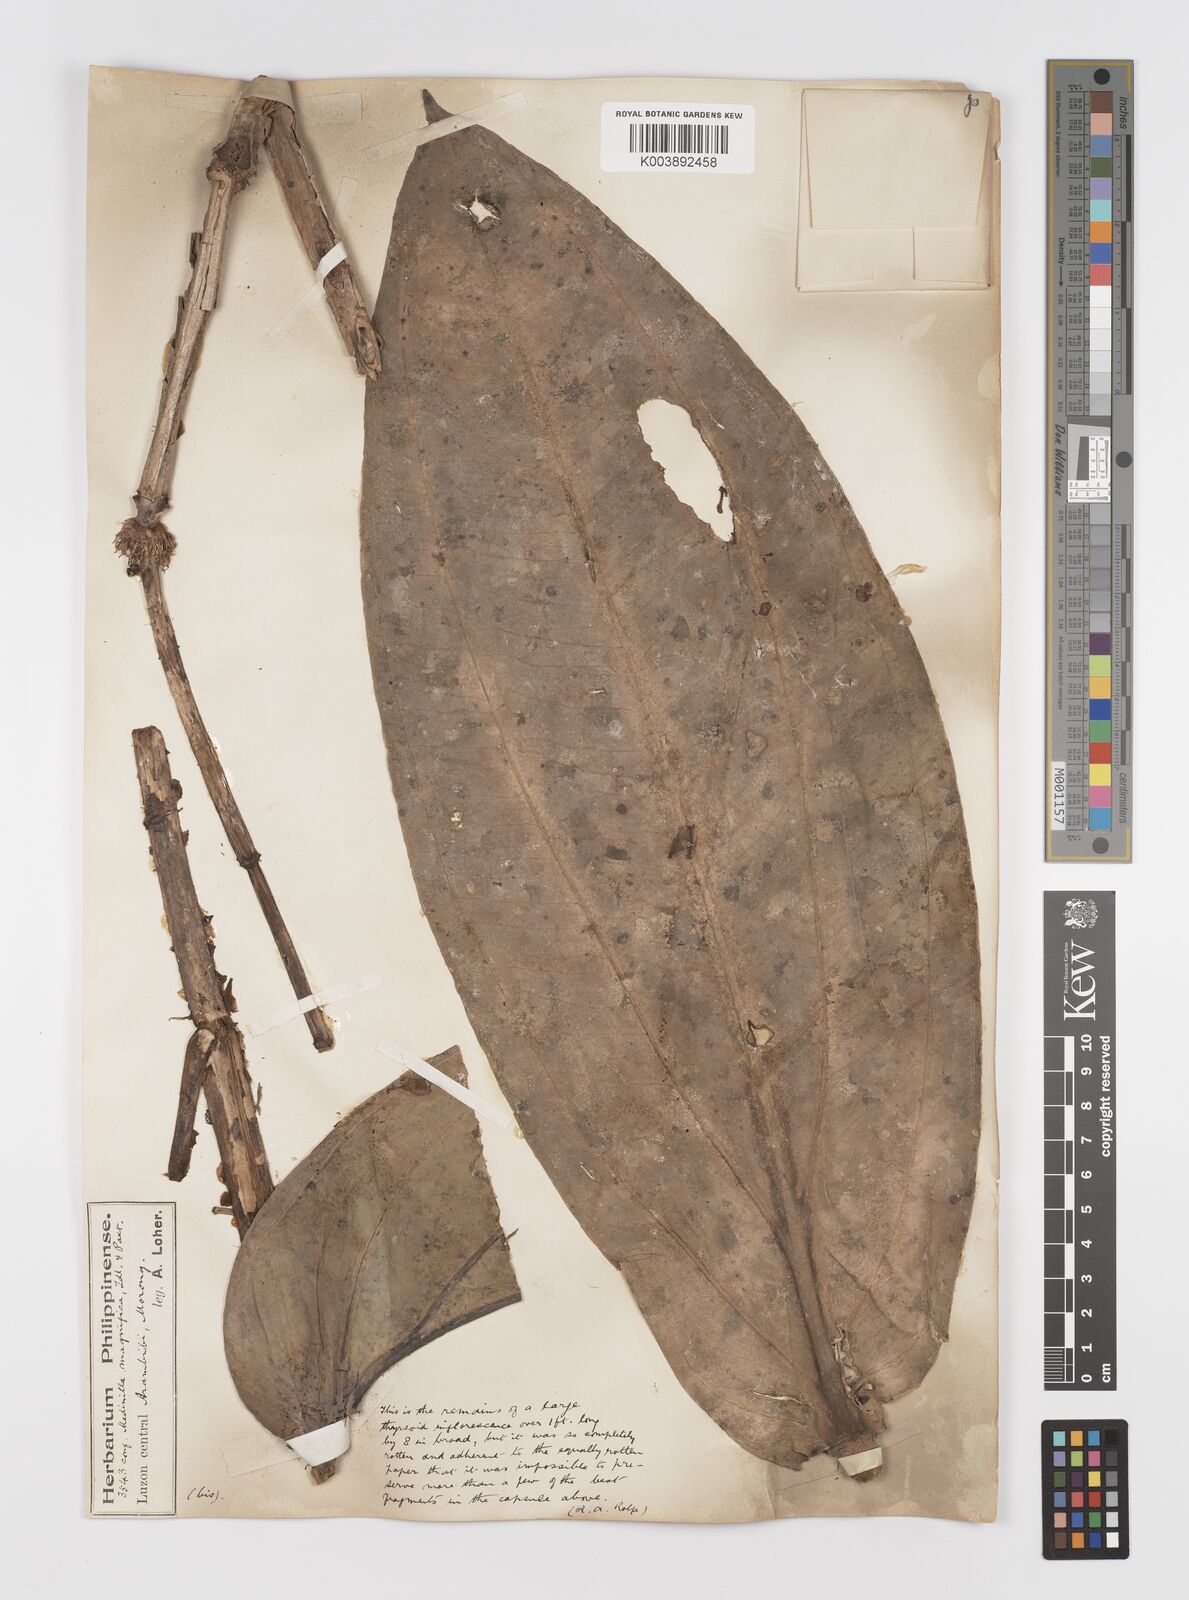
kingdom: Plantae
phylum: Tracheophyta
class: Magnoliopsida
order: Myrtales
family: Melastomataceae
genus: Medinilla
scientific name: Medinilla magnifica
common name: Showy medinilla
